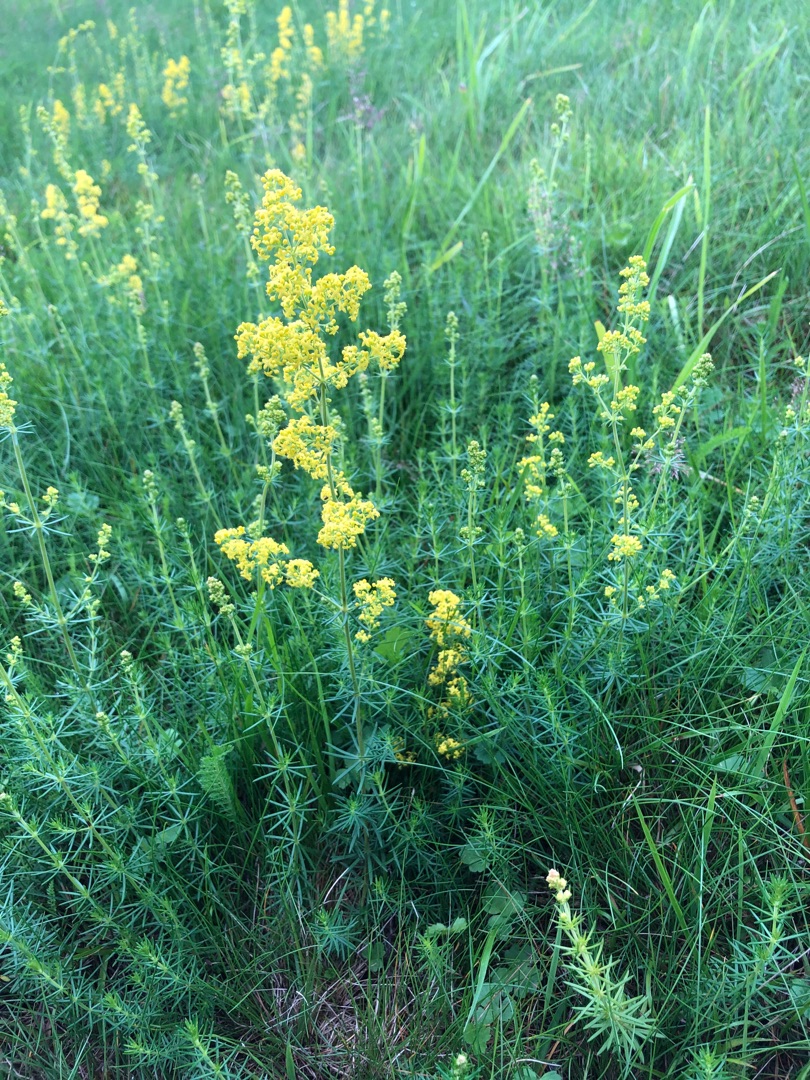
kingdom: Plantae
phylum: Tracheophyta
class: Magnoliopsida
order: Gentianales
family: Rubiaceae
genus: Galium
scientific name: Galium verum
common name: Gul snerre
